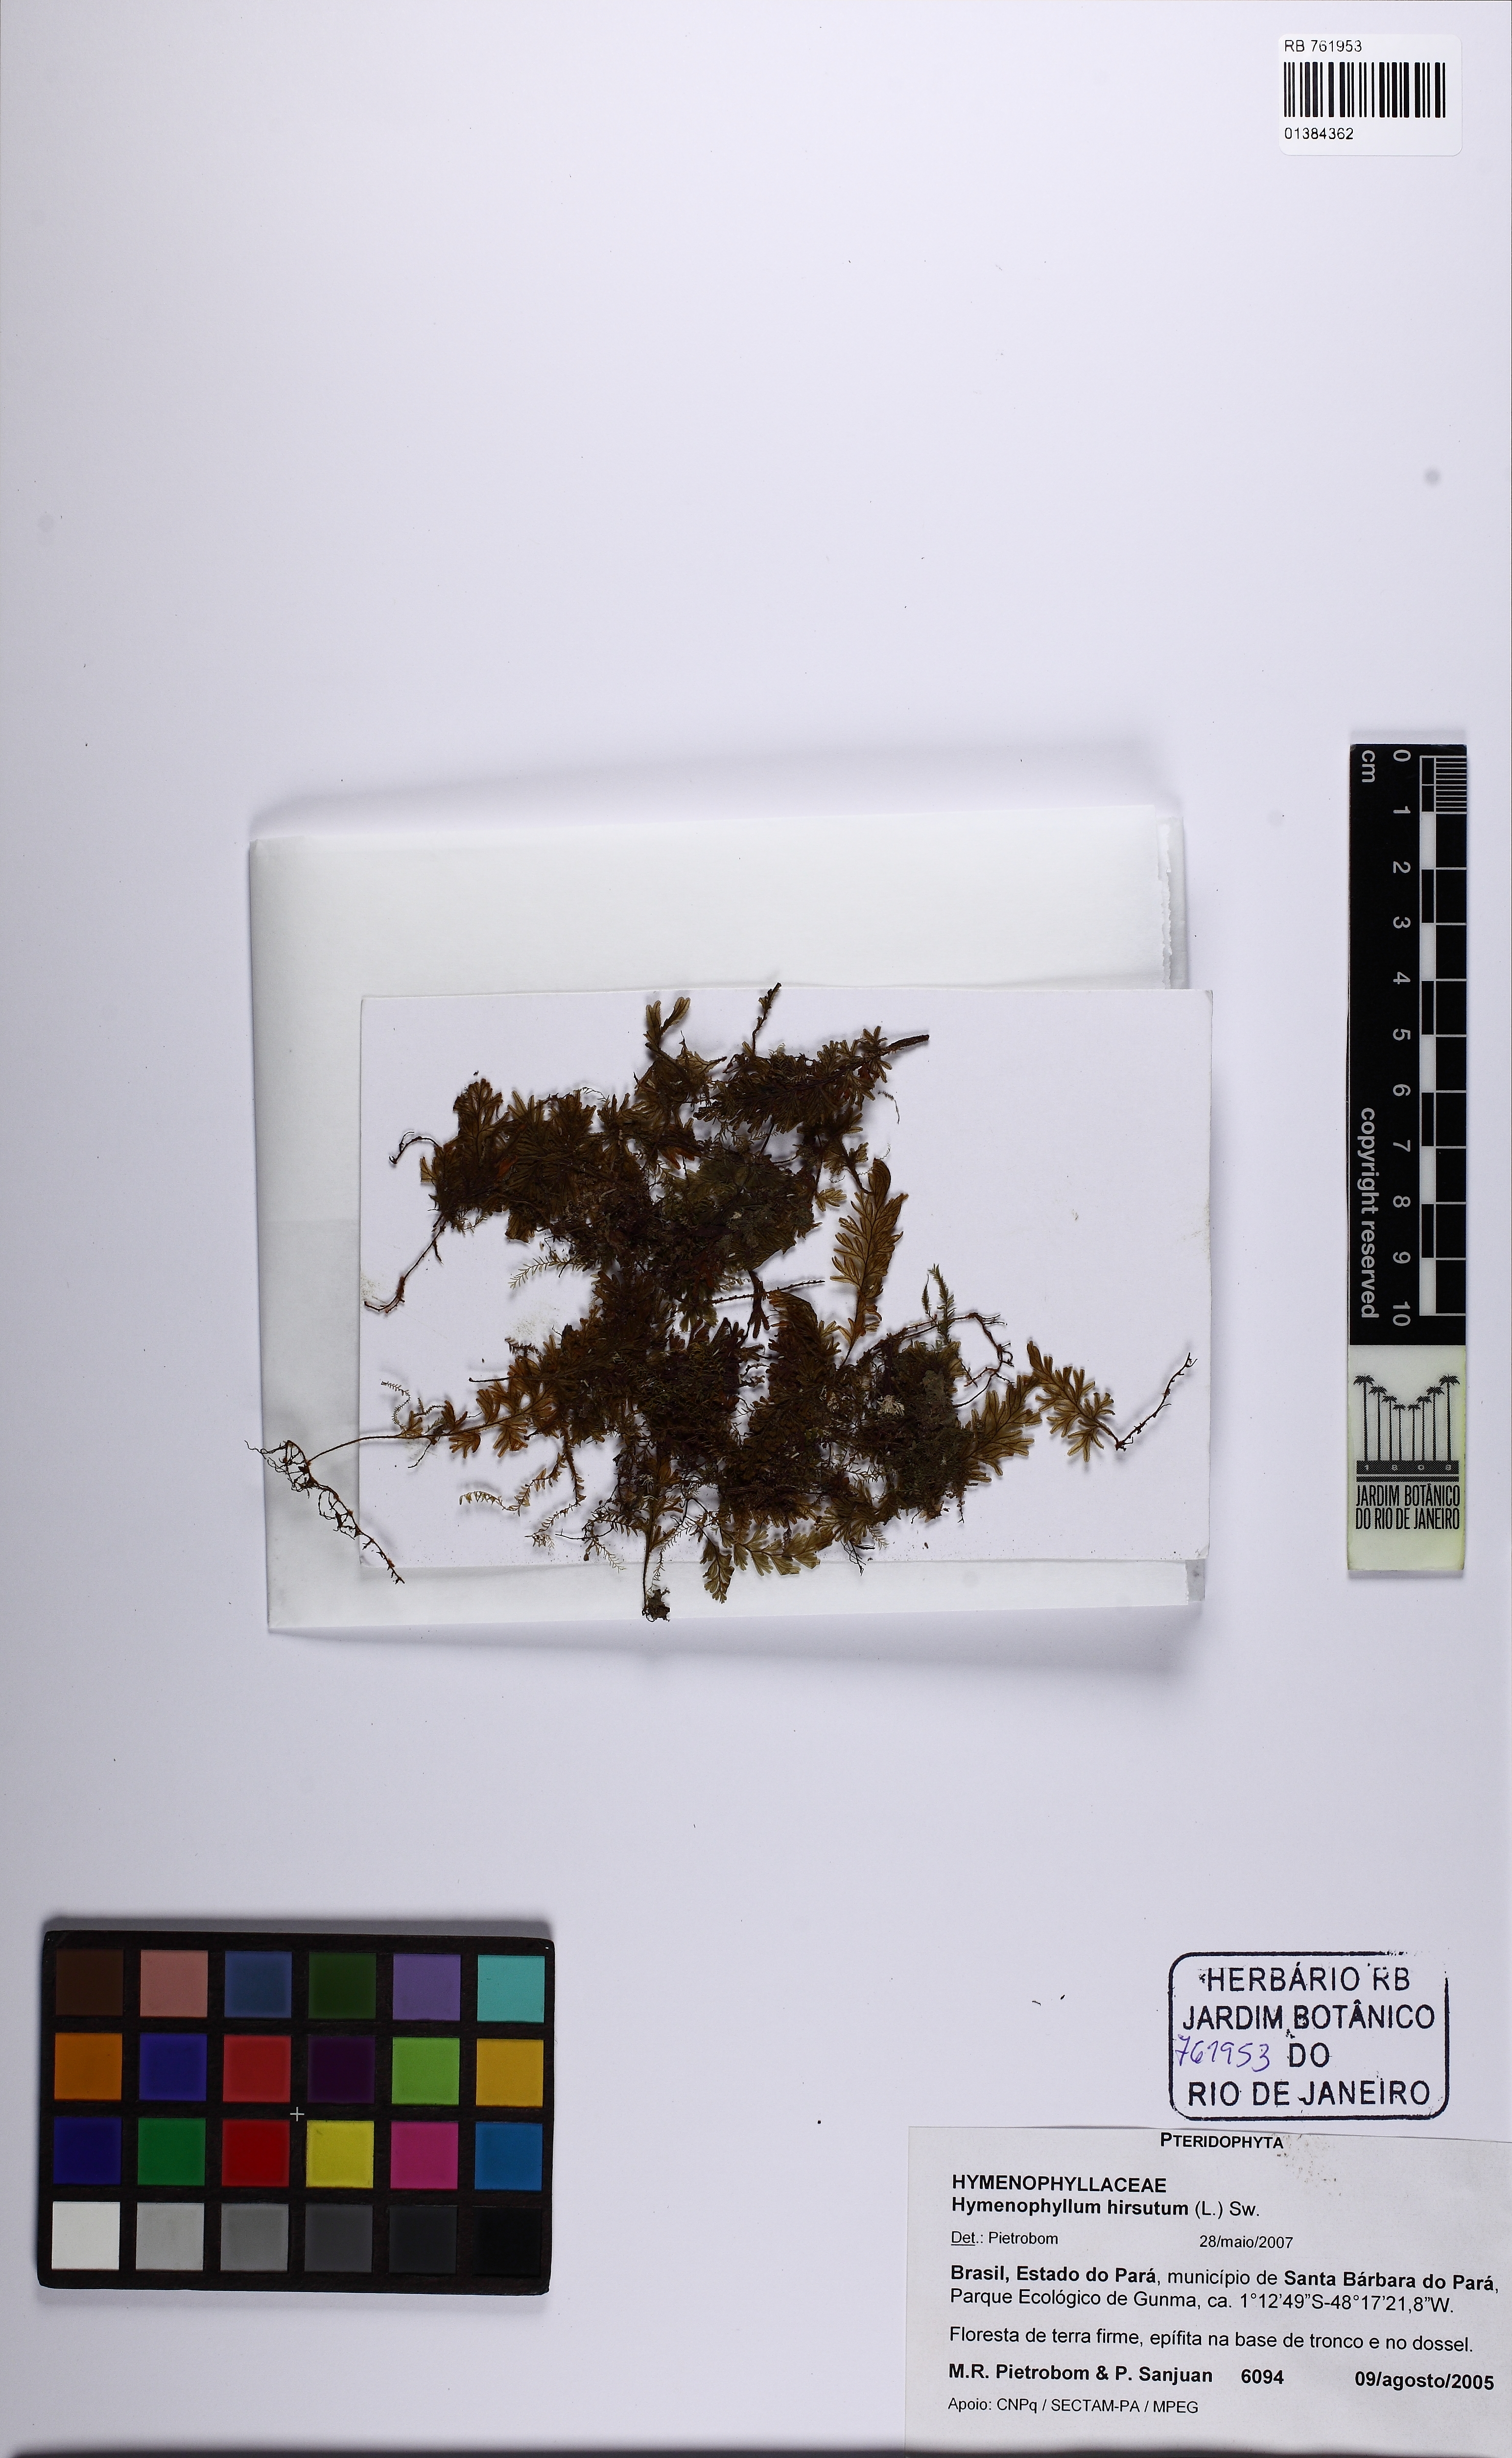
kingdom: Plantae
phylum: Tracheophyta
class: Polypodiopsida
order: Hymenophyllales
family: Hymenophyllaceae
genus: Hymenophyllum
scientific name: Hymenophyllum hirsutum
